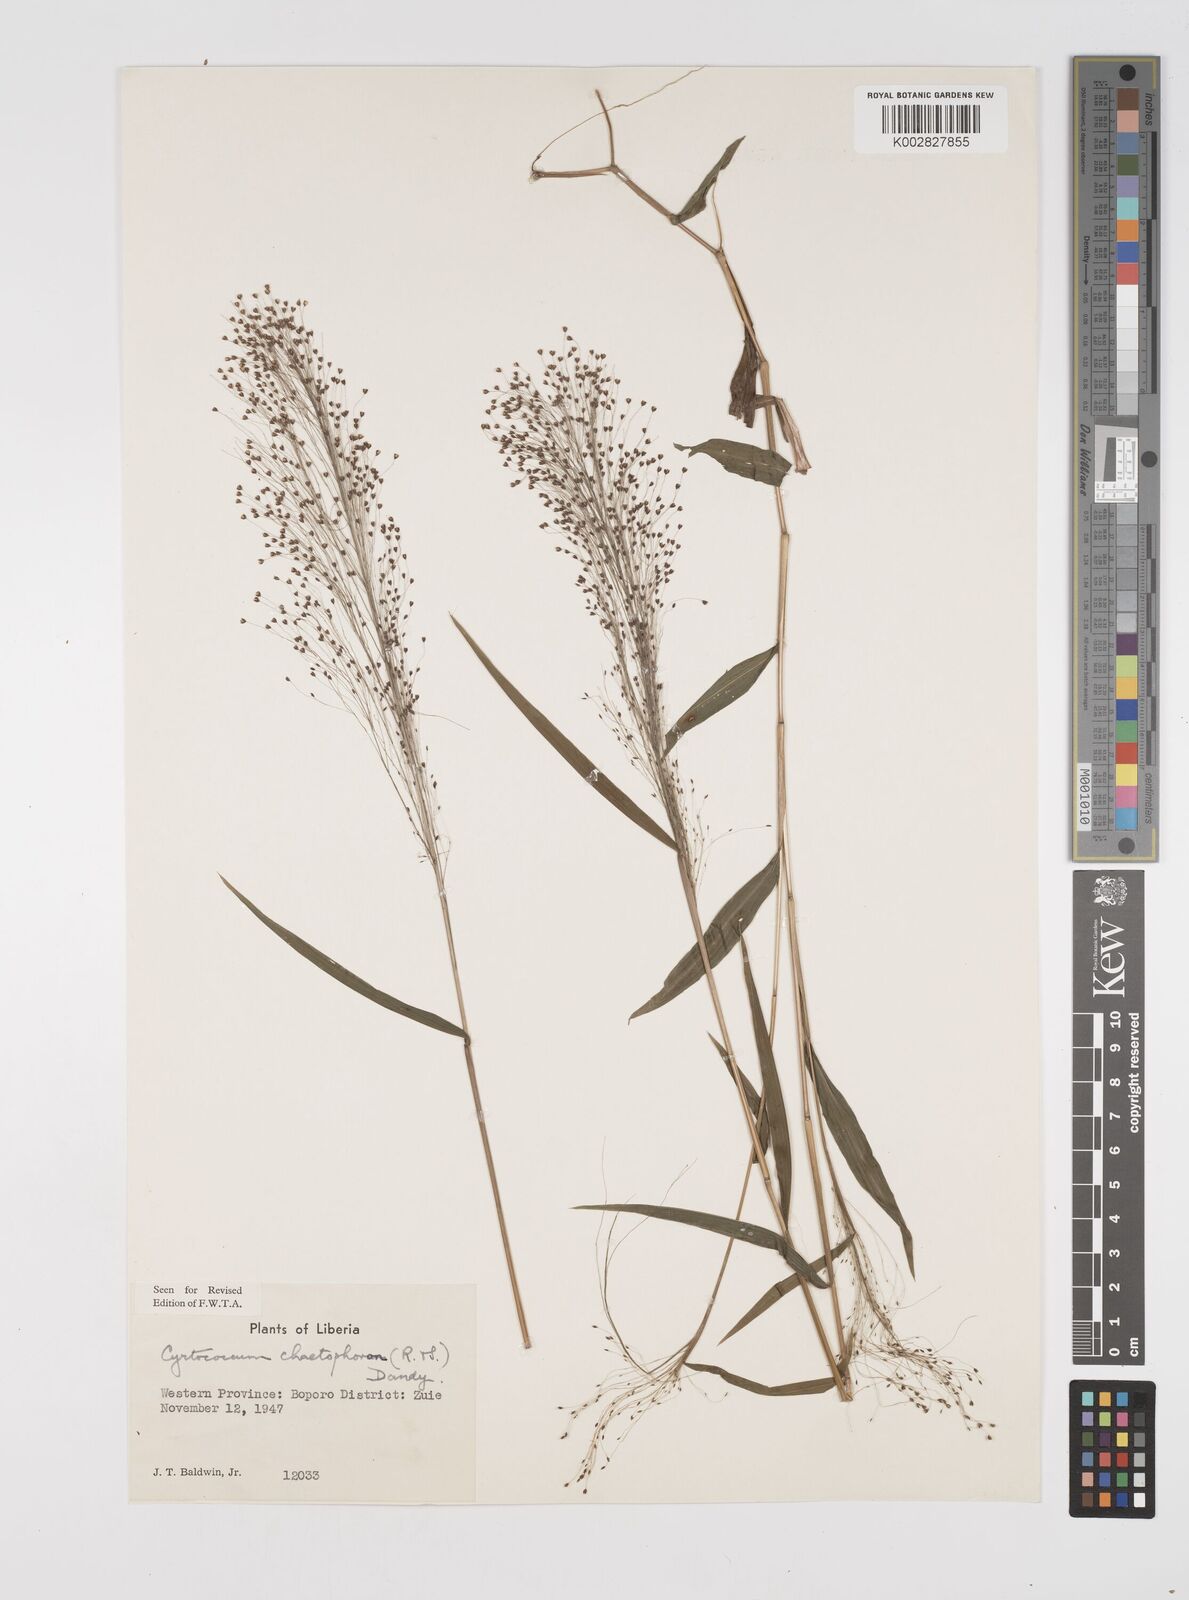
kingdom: Plantae
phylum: Tracheophyta
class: Liliopsida
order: Poales
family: Poaceae
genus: Cyrtococcum
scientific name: Cyrtococcum chaetophoron
